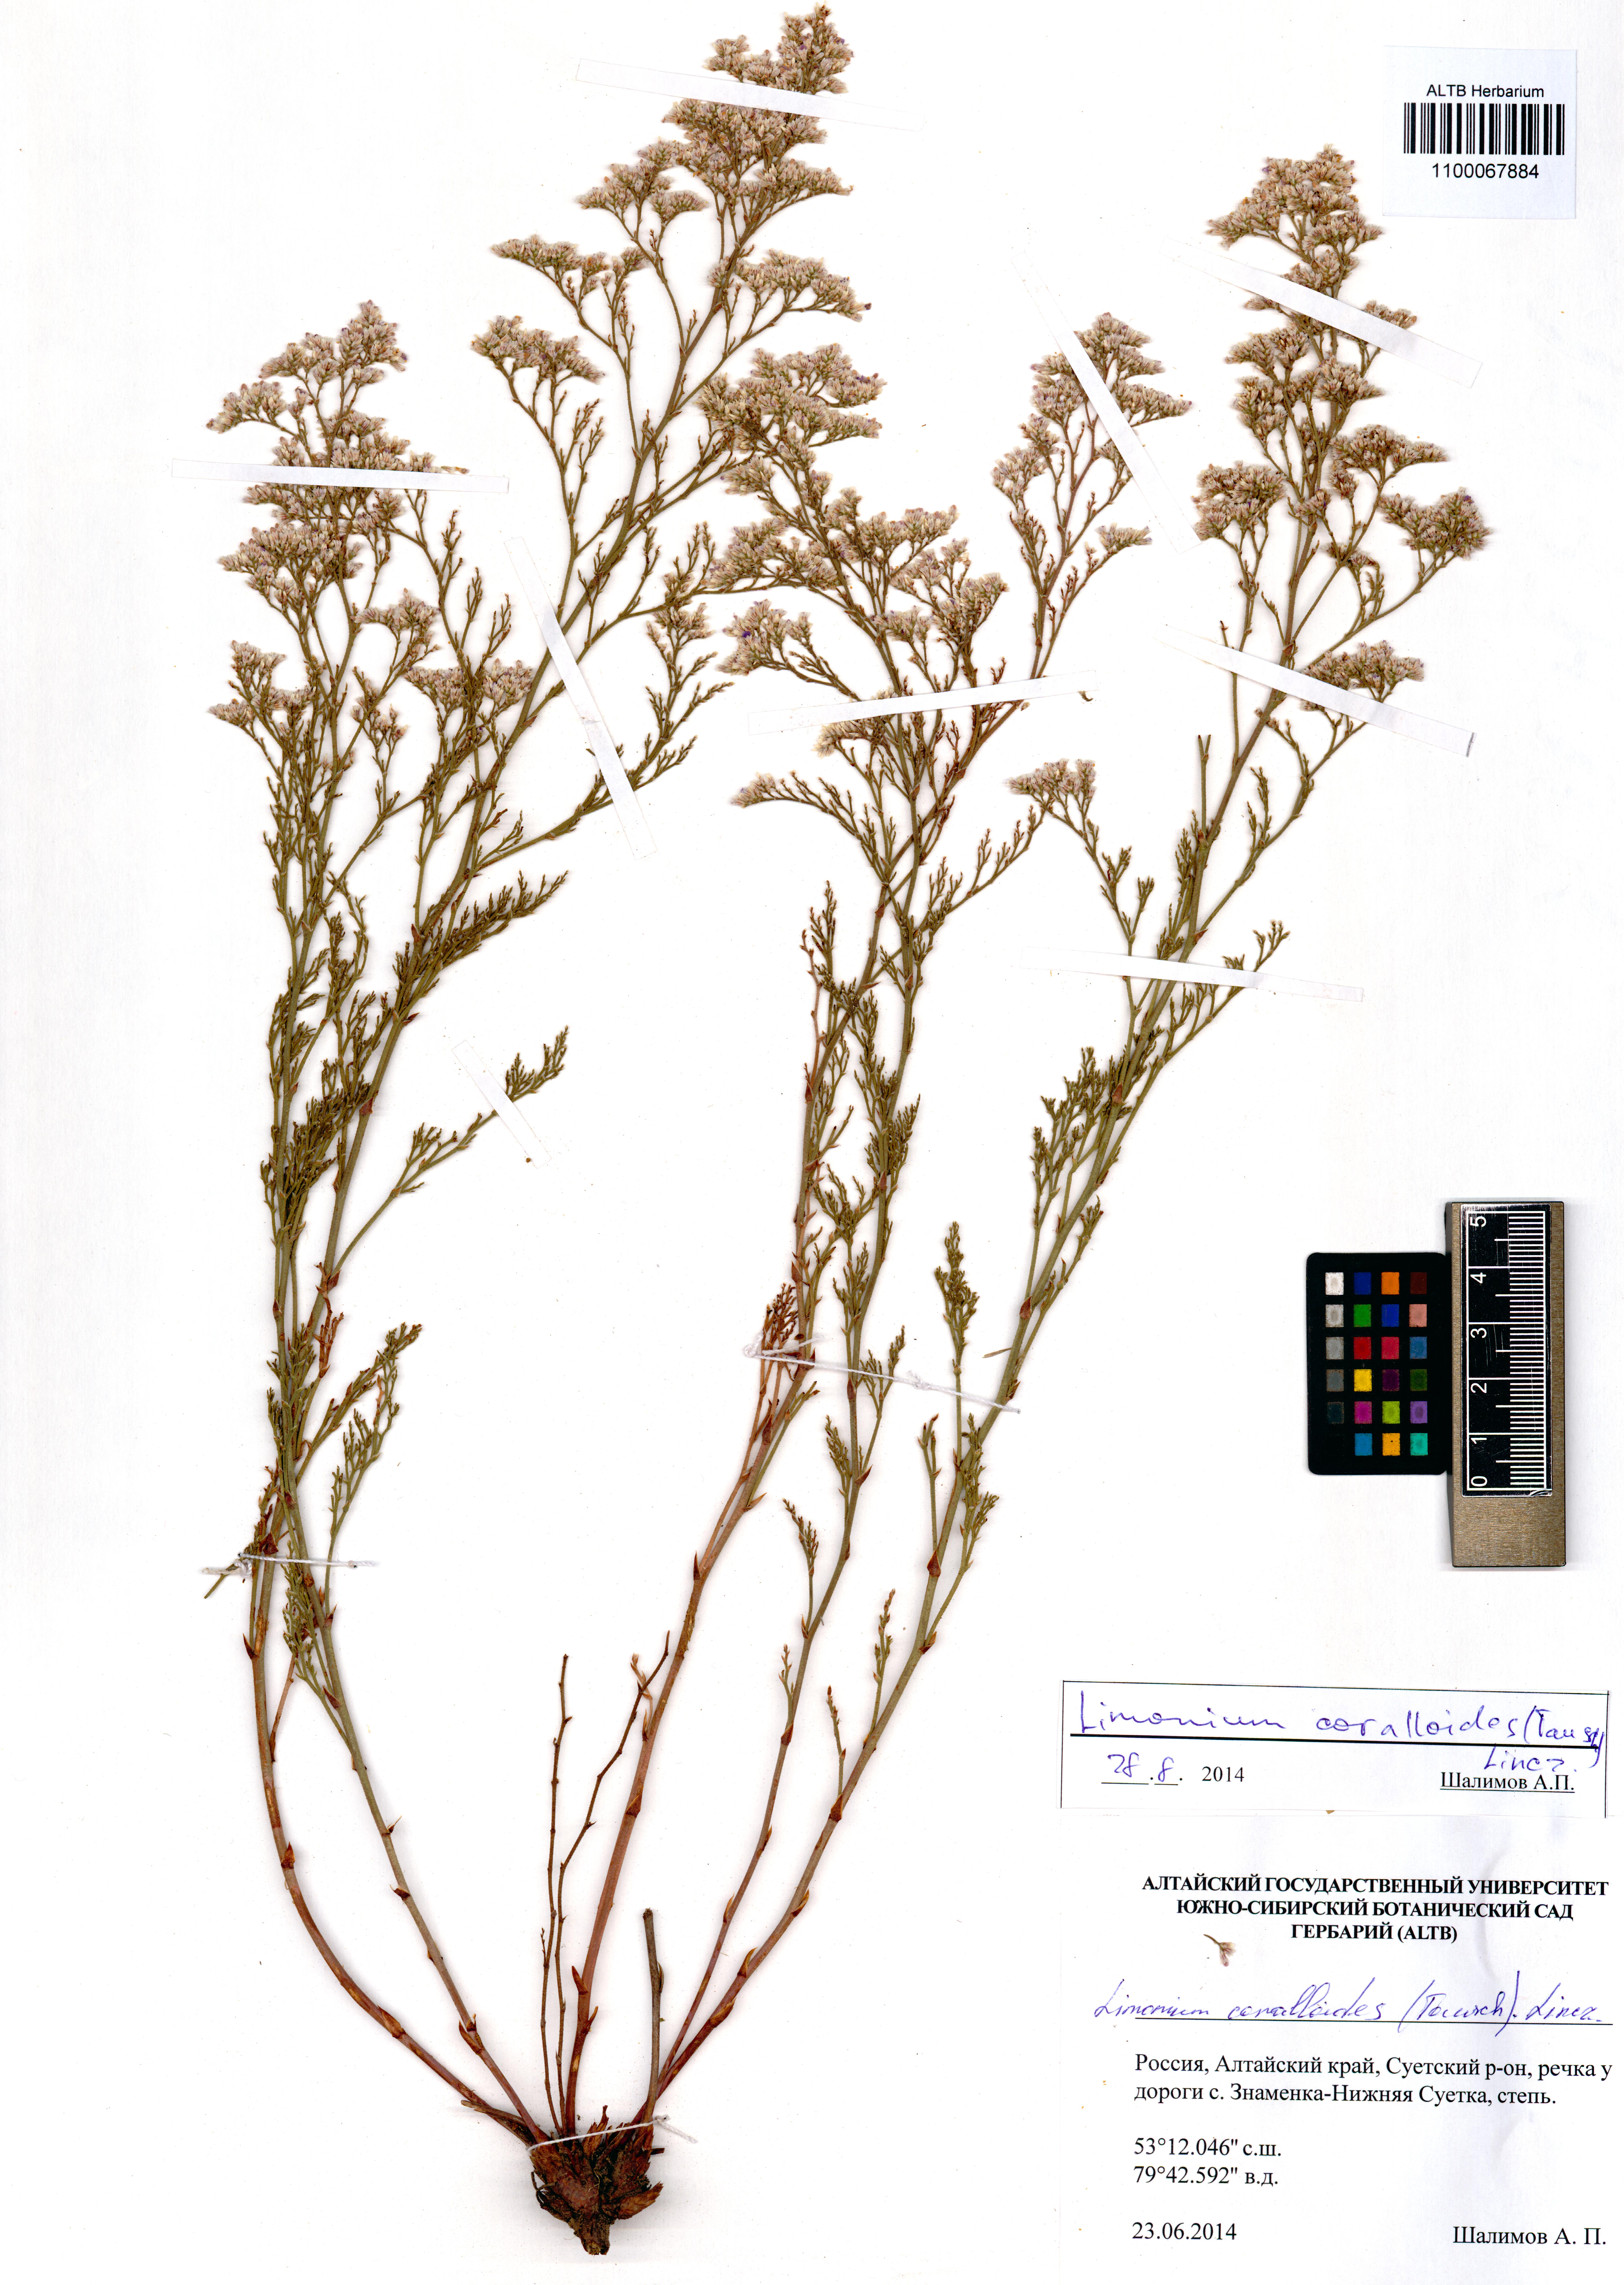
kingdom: Plantae
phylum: Tracheophyta
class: Magnoliopsida
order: Caryophyllales
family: Plumbaginaceae
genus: Limonium
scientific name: Limonium coralloides
